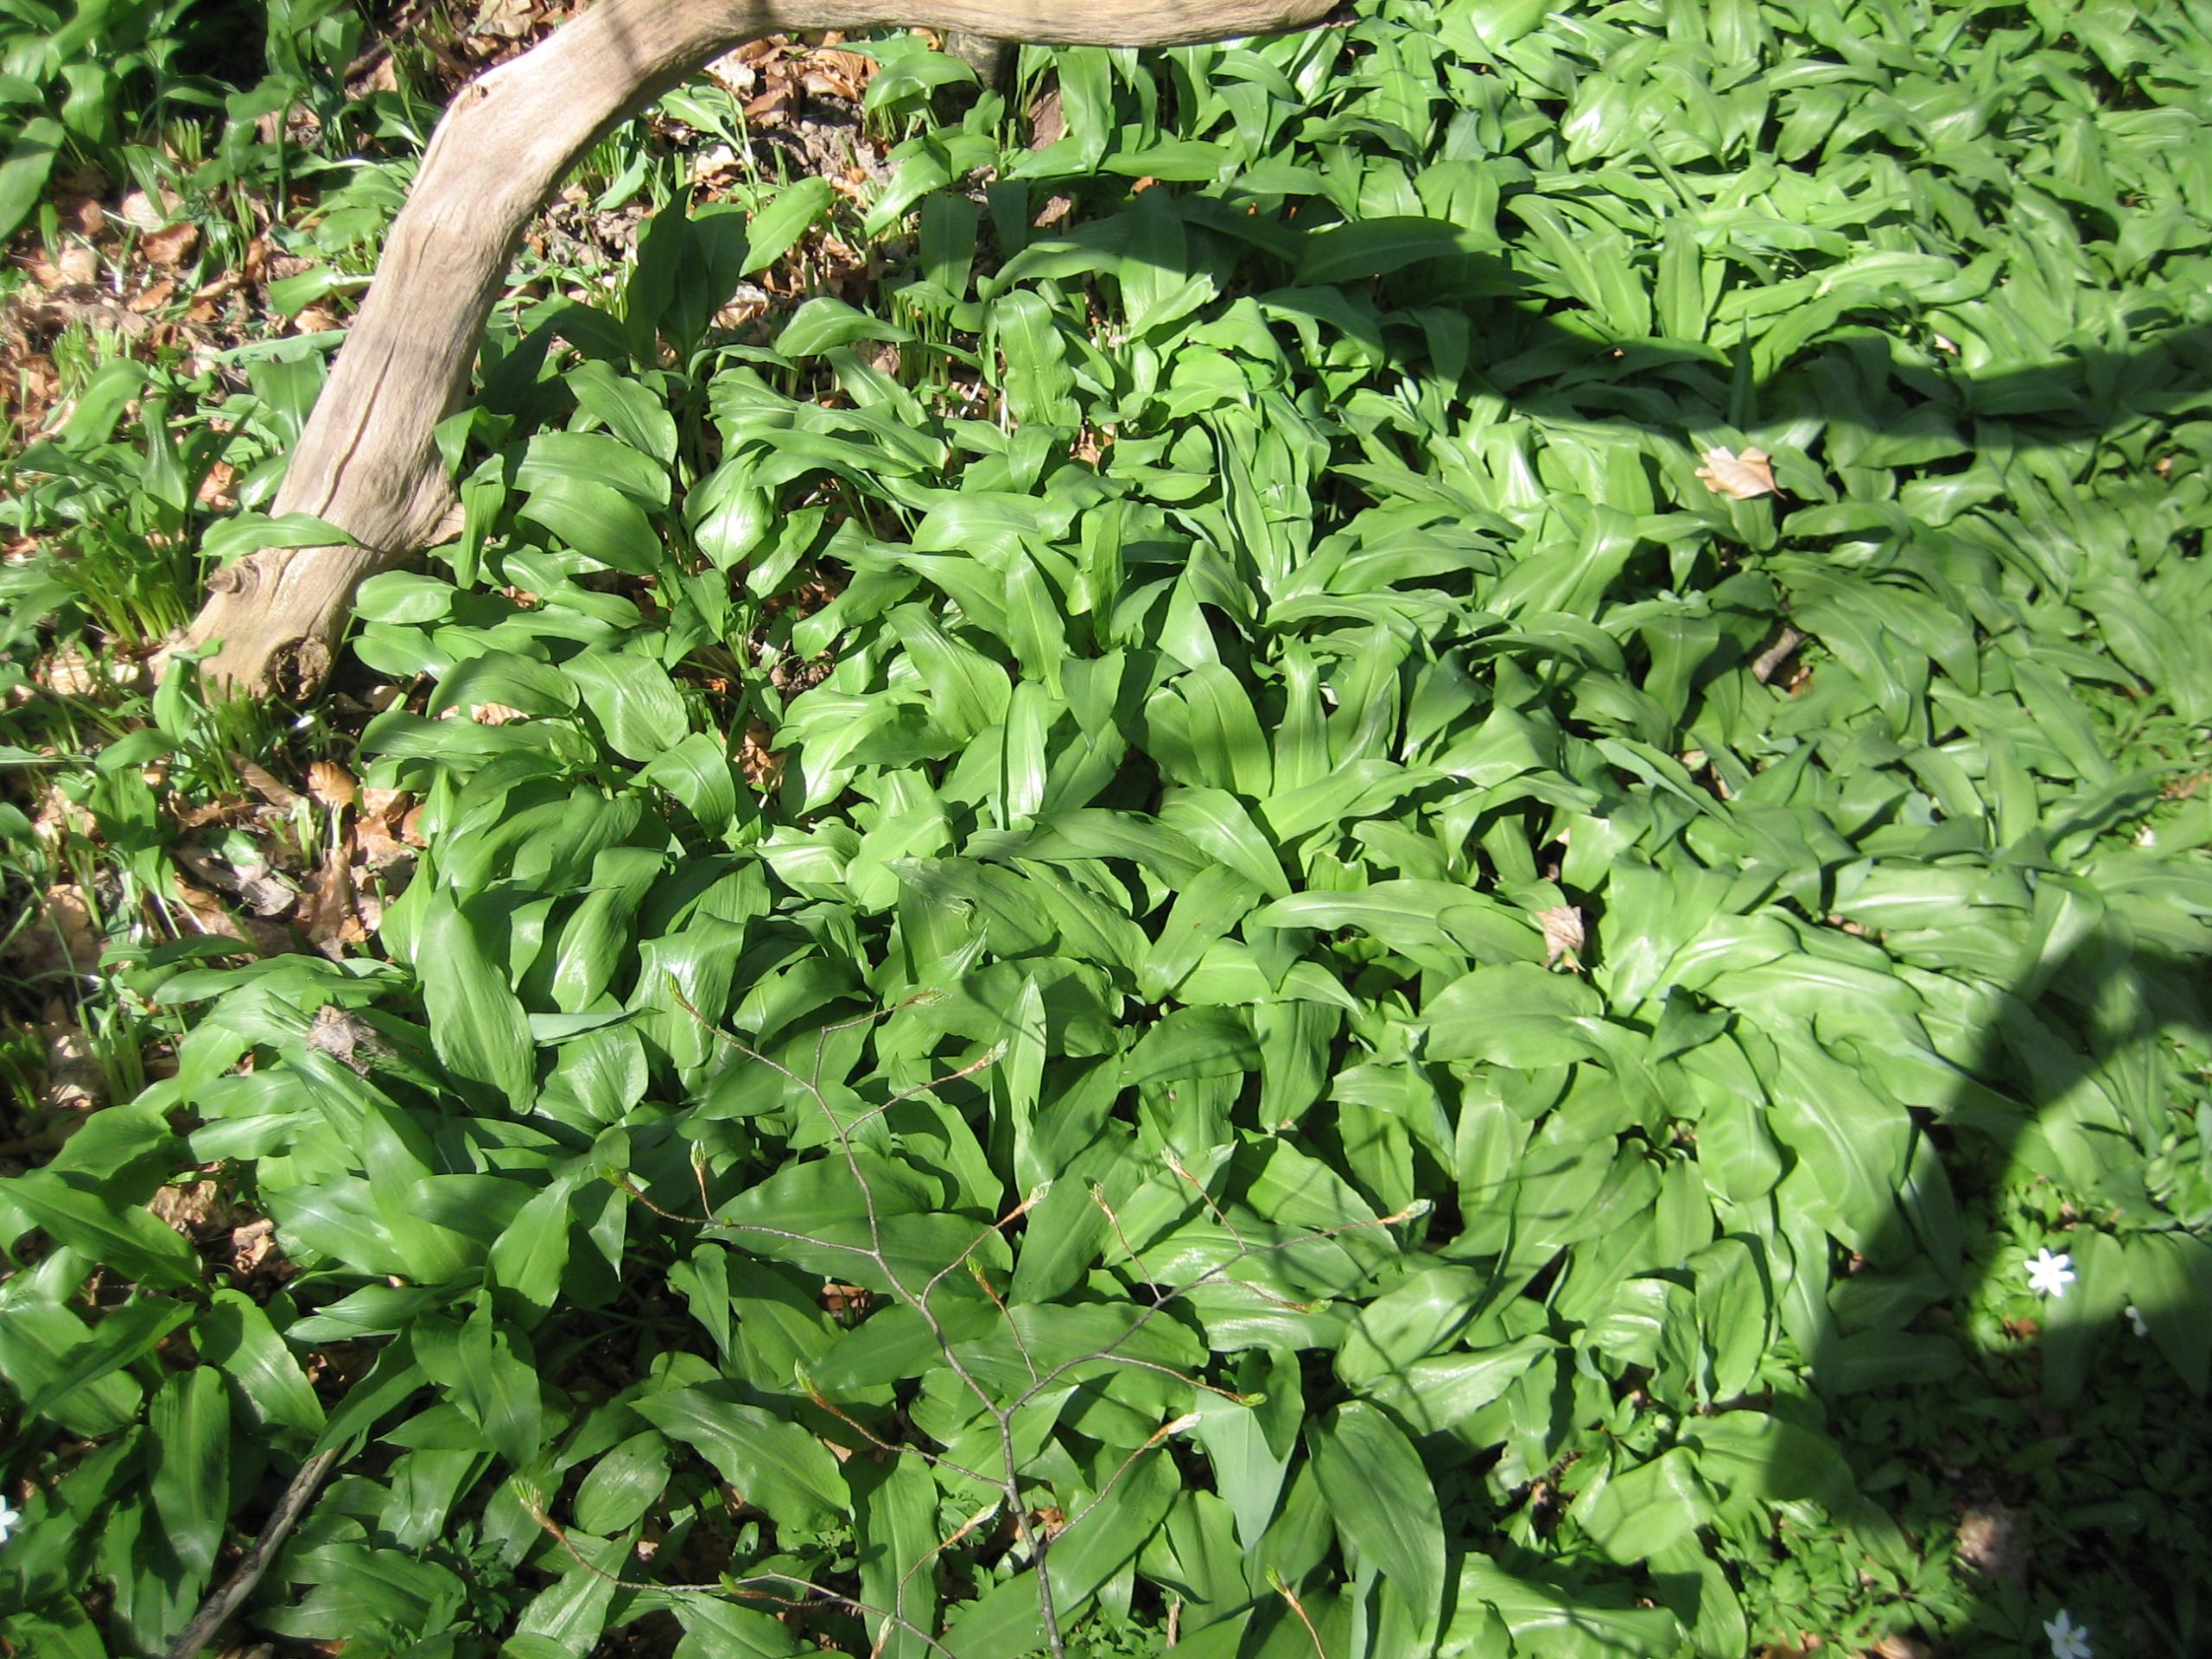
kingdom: Plantae
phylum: Tracheophyta
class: Liliopsida
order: Asparagales
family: Amaryllidaceae
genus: Allium
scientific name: Allium ursinum
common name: Rams-løg
